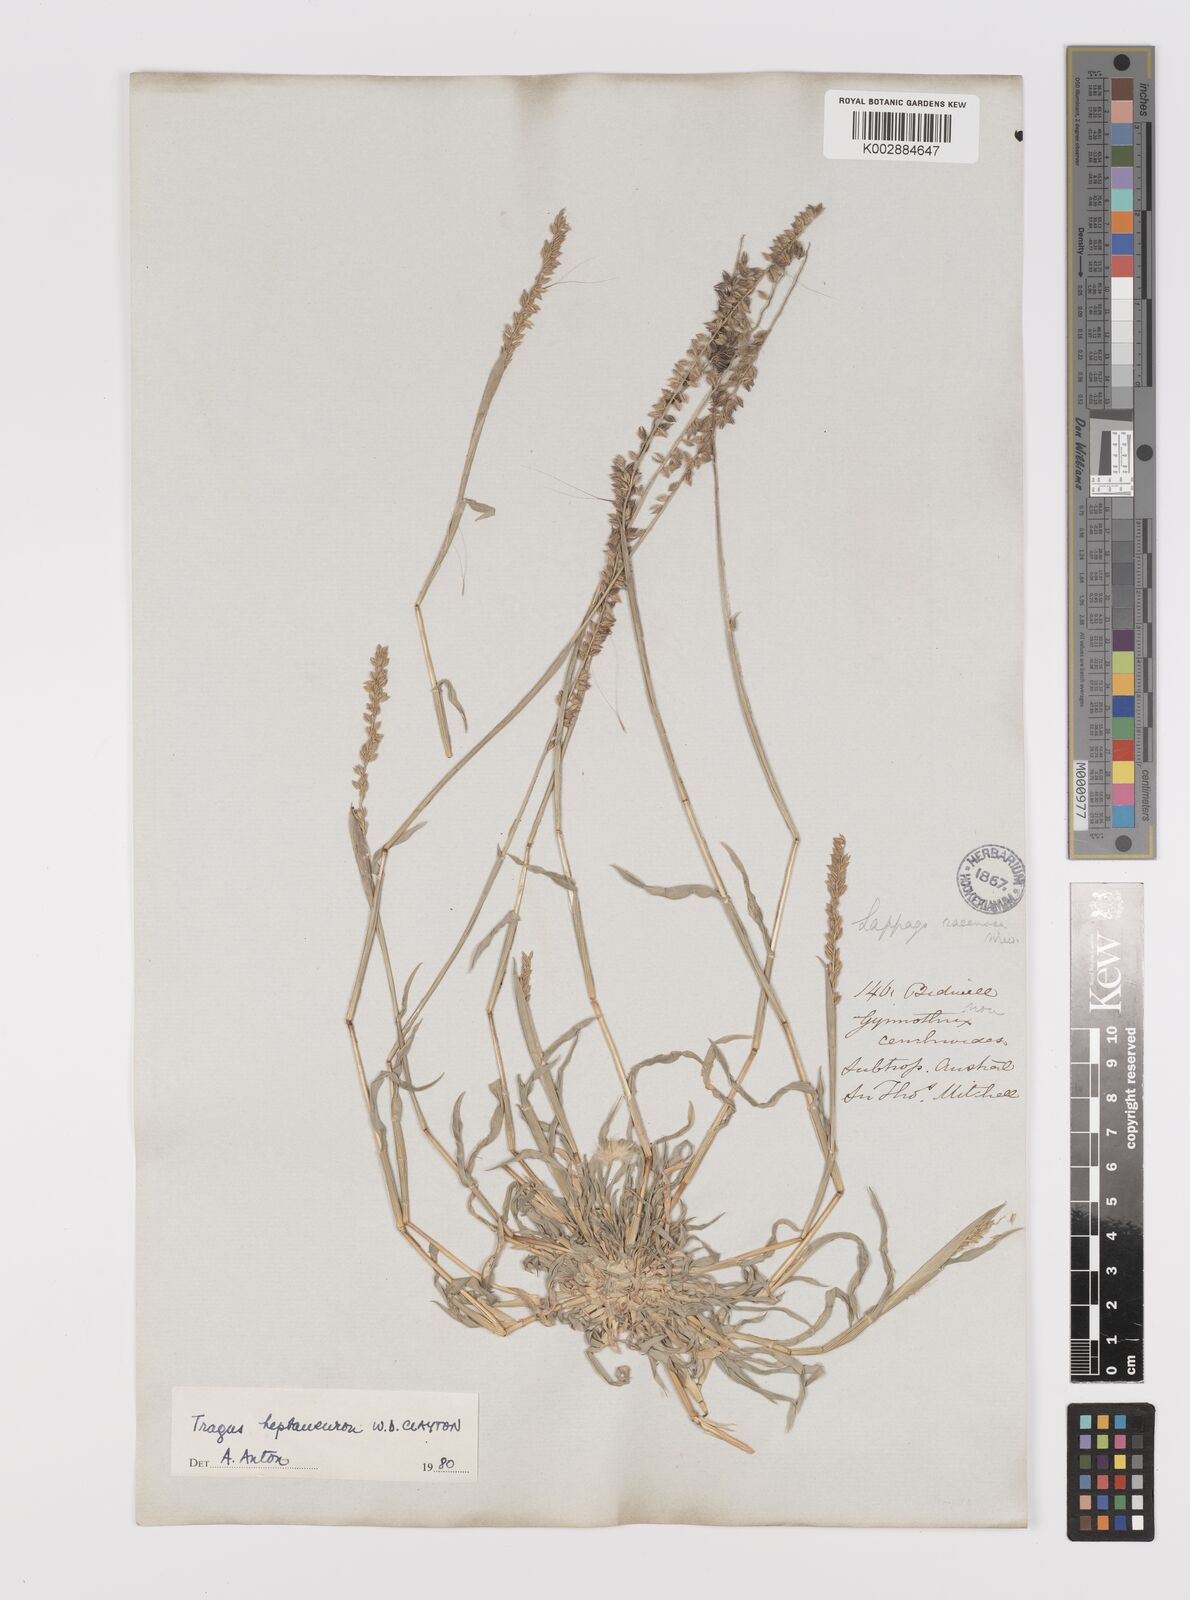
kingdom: Plantae
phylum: Tracheophyta
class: Liliopsida
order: Poales
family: Poaceae
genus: Tragus
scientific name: Tragus australianus
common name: Australian bur-grass
